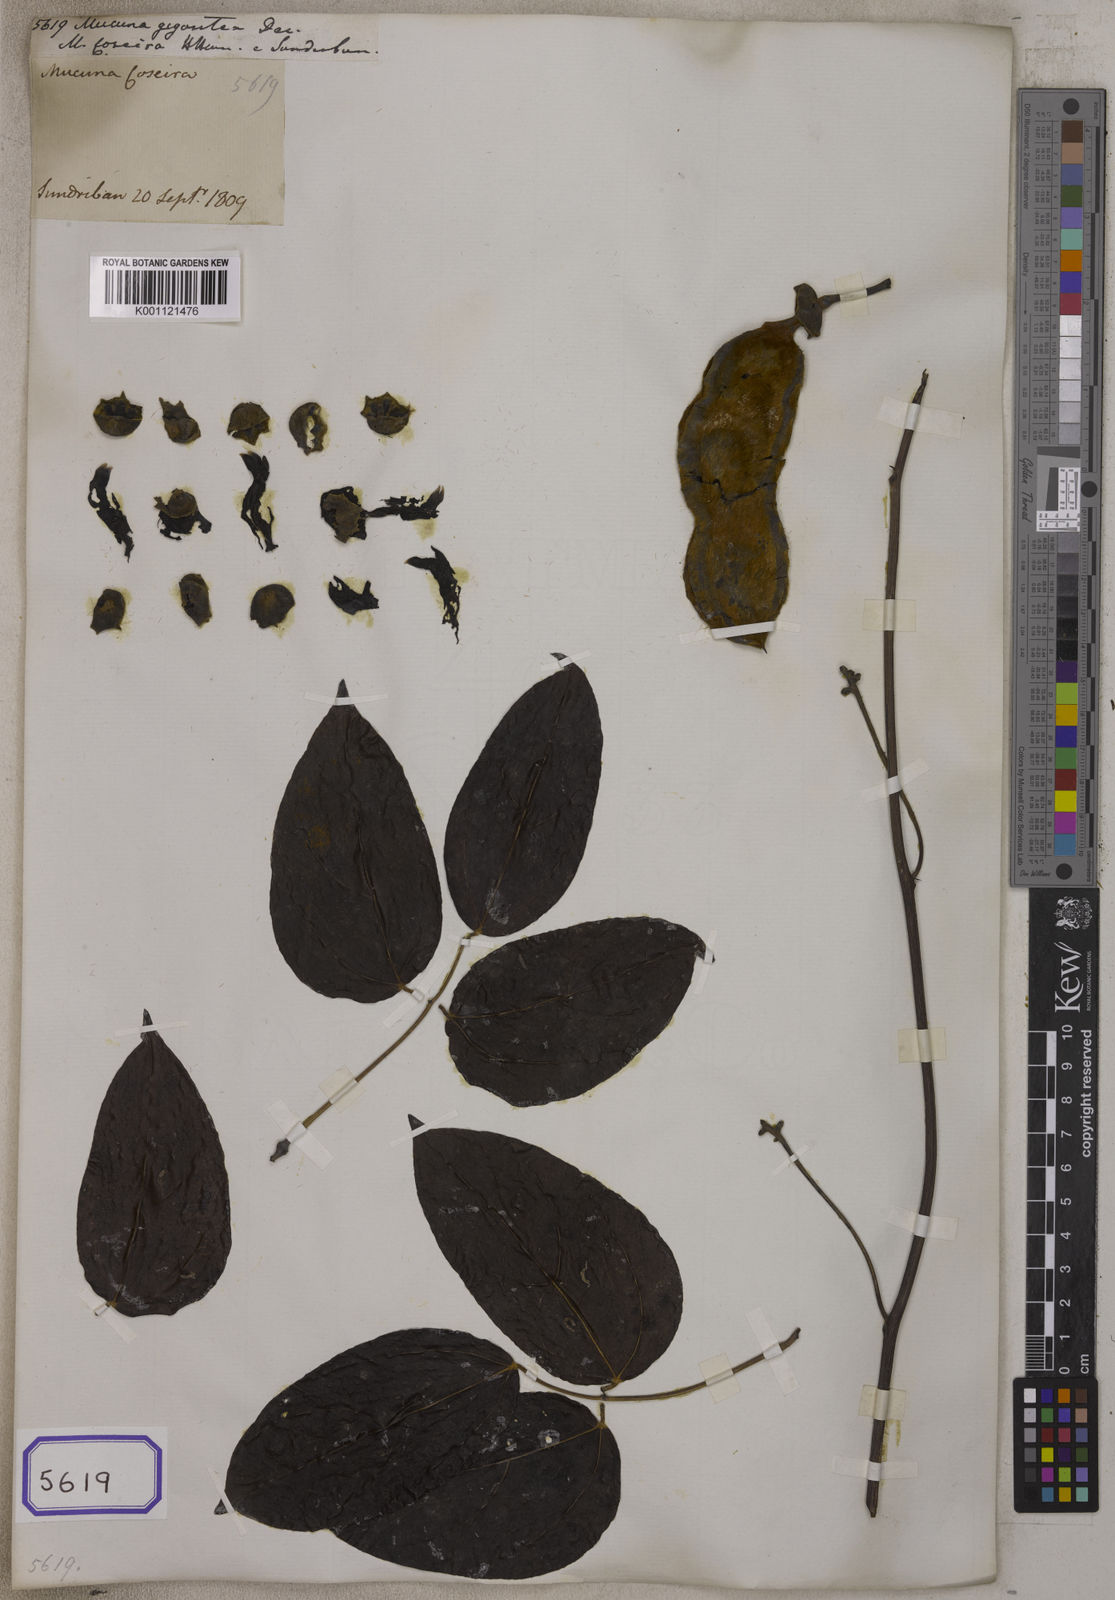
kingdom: Plantae
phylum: Tracheophyta
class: Magnoliopsida
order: Fabales
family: Fabaceae
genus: Mucuna
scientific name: Mucuna gigantea
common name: Black-bean
